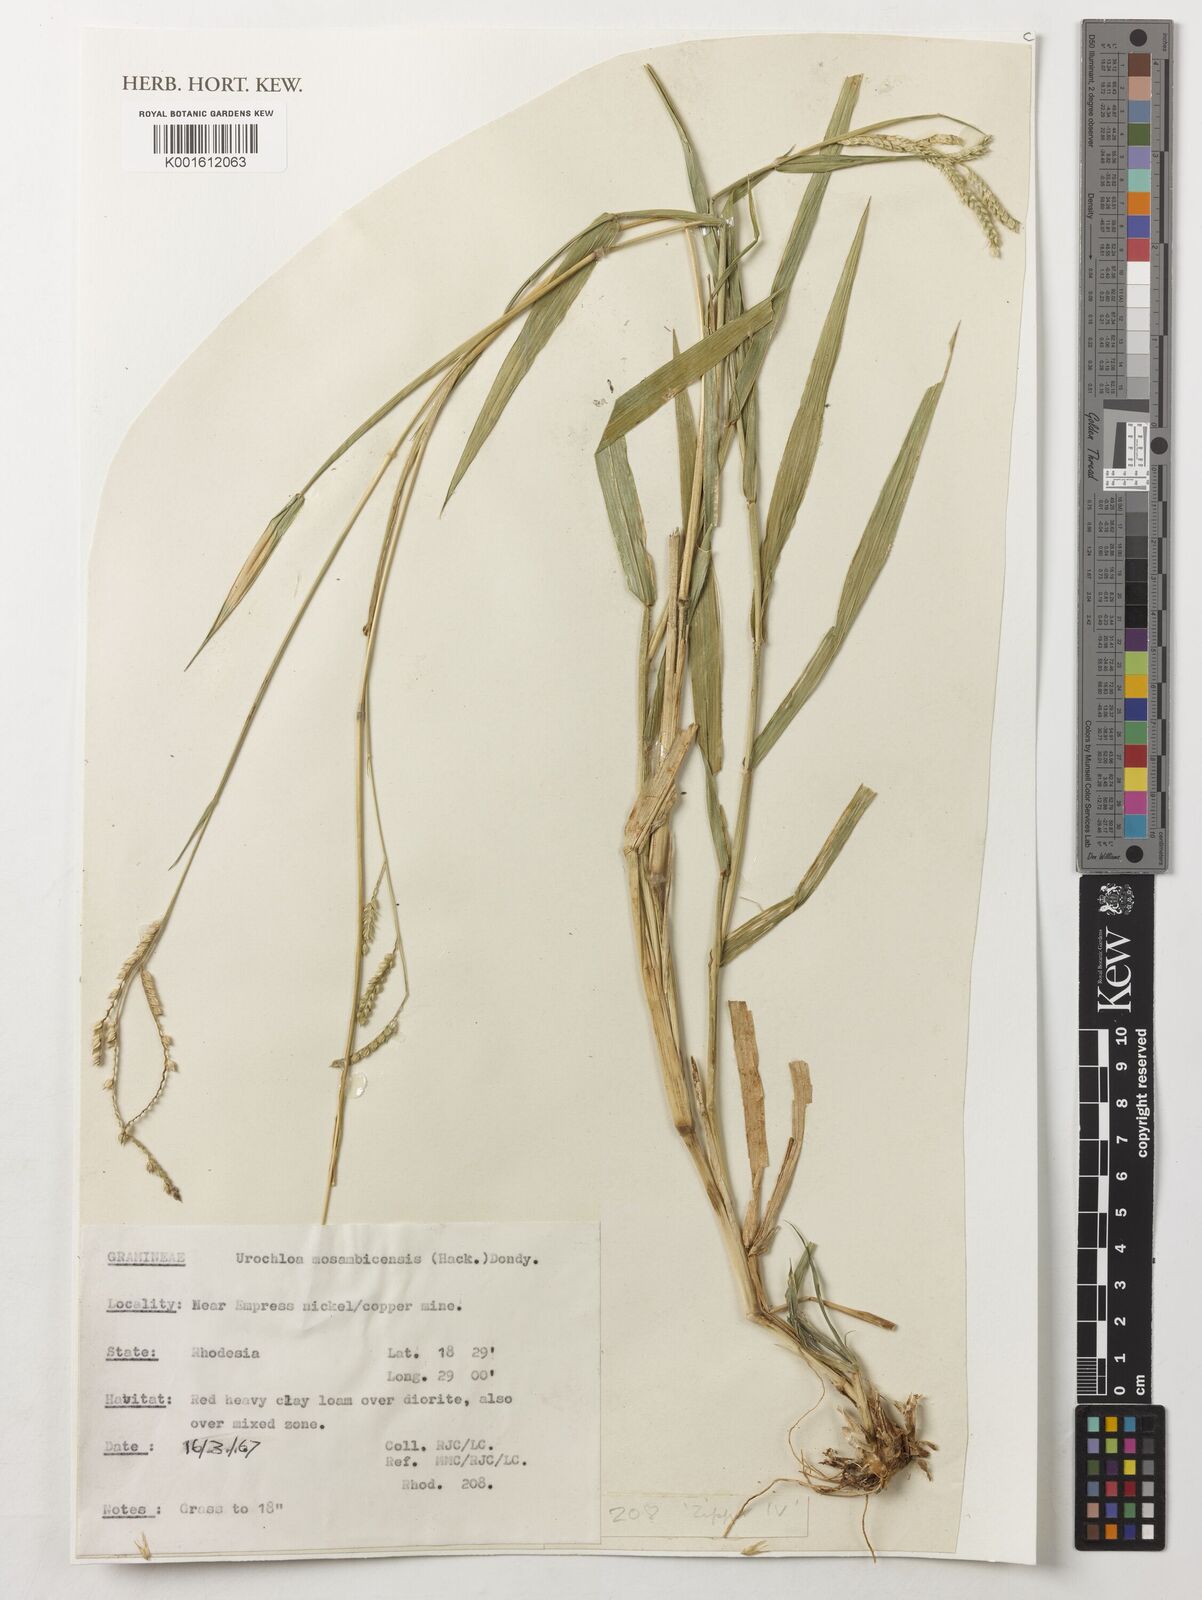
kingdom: Plantae
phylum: Tracheophyta
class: Liliopsida
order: Poales
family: Poaceae
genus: Urochloa
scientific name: Urochloa trichopus
